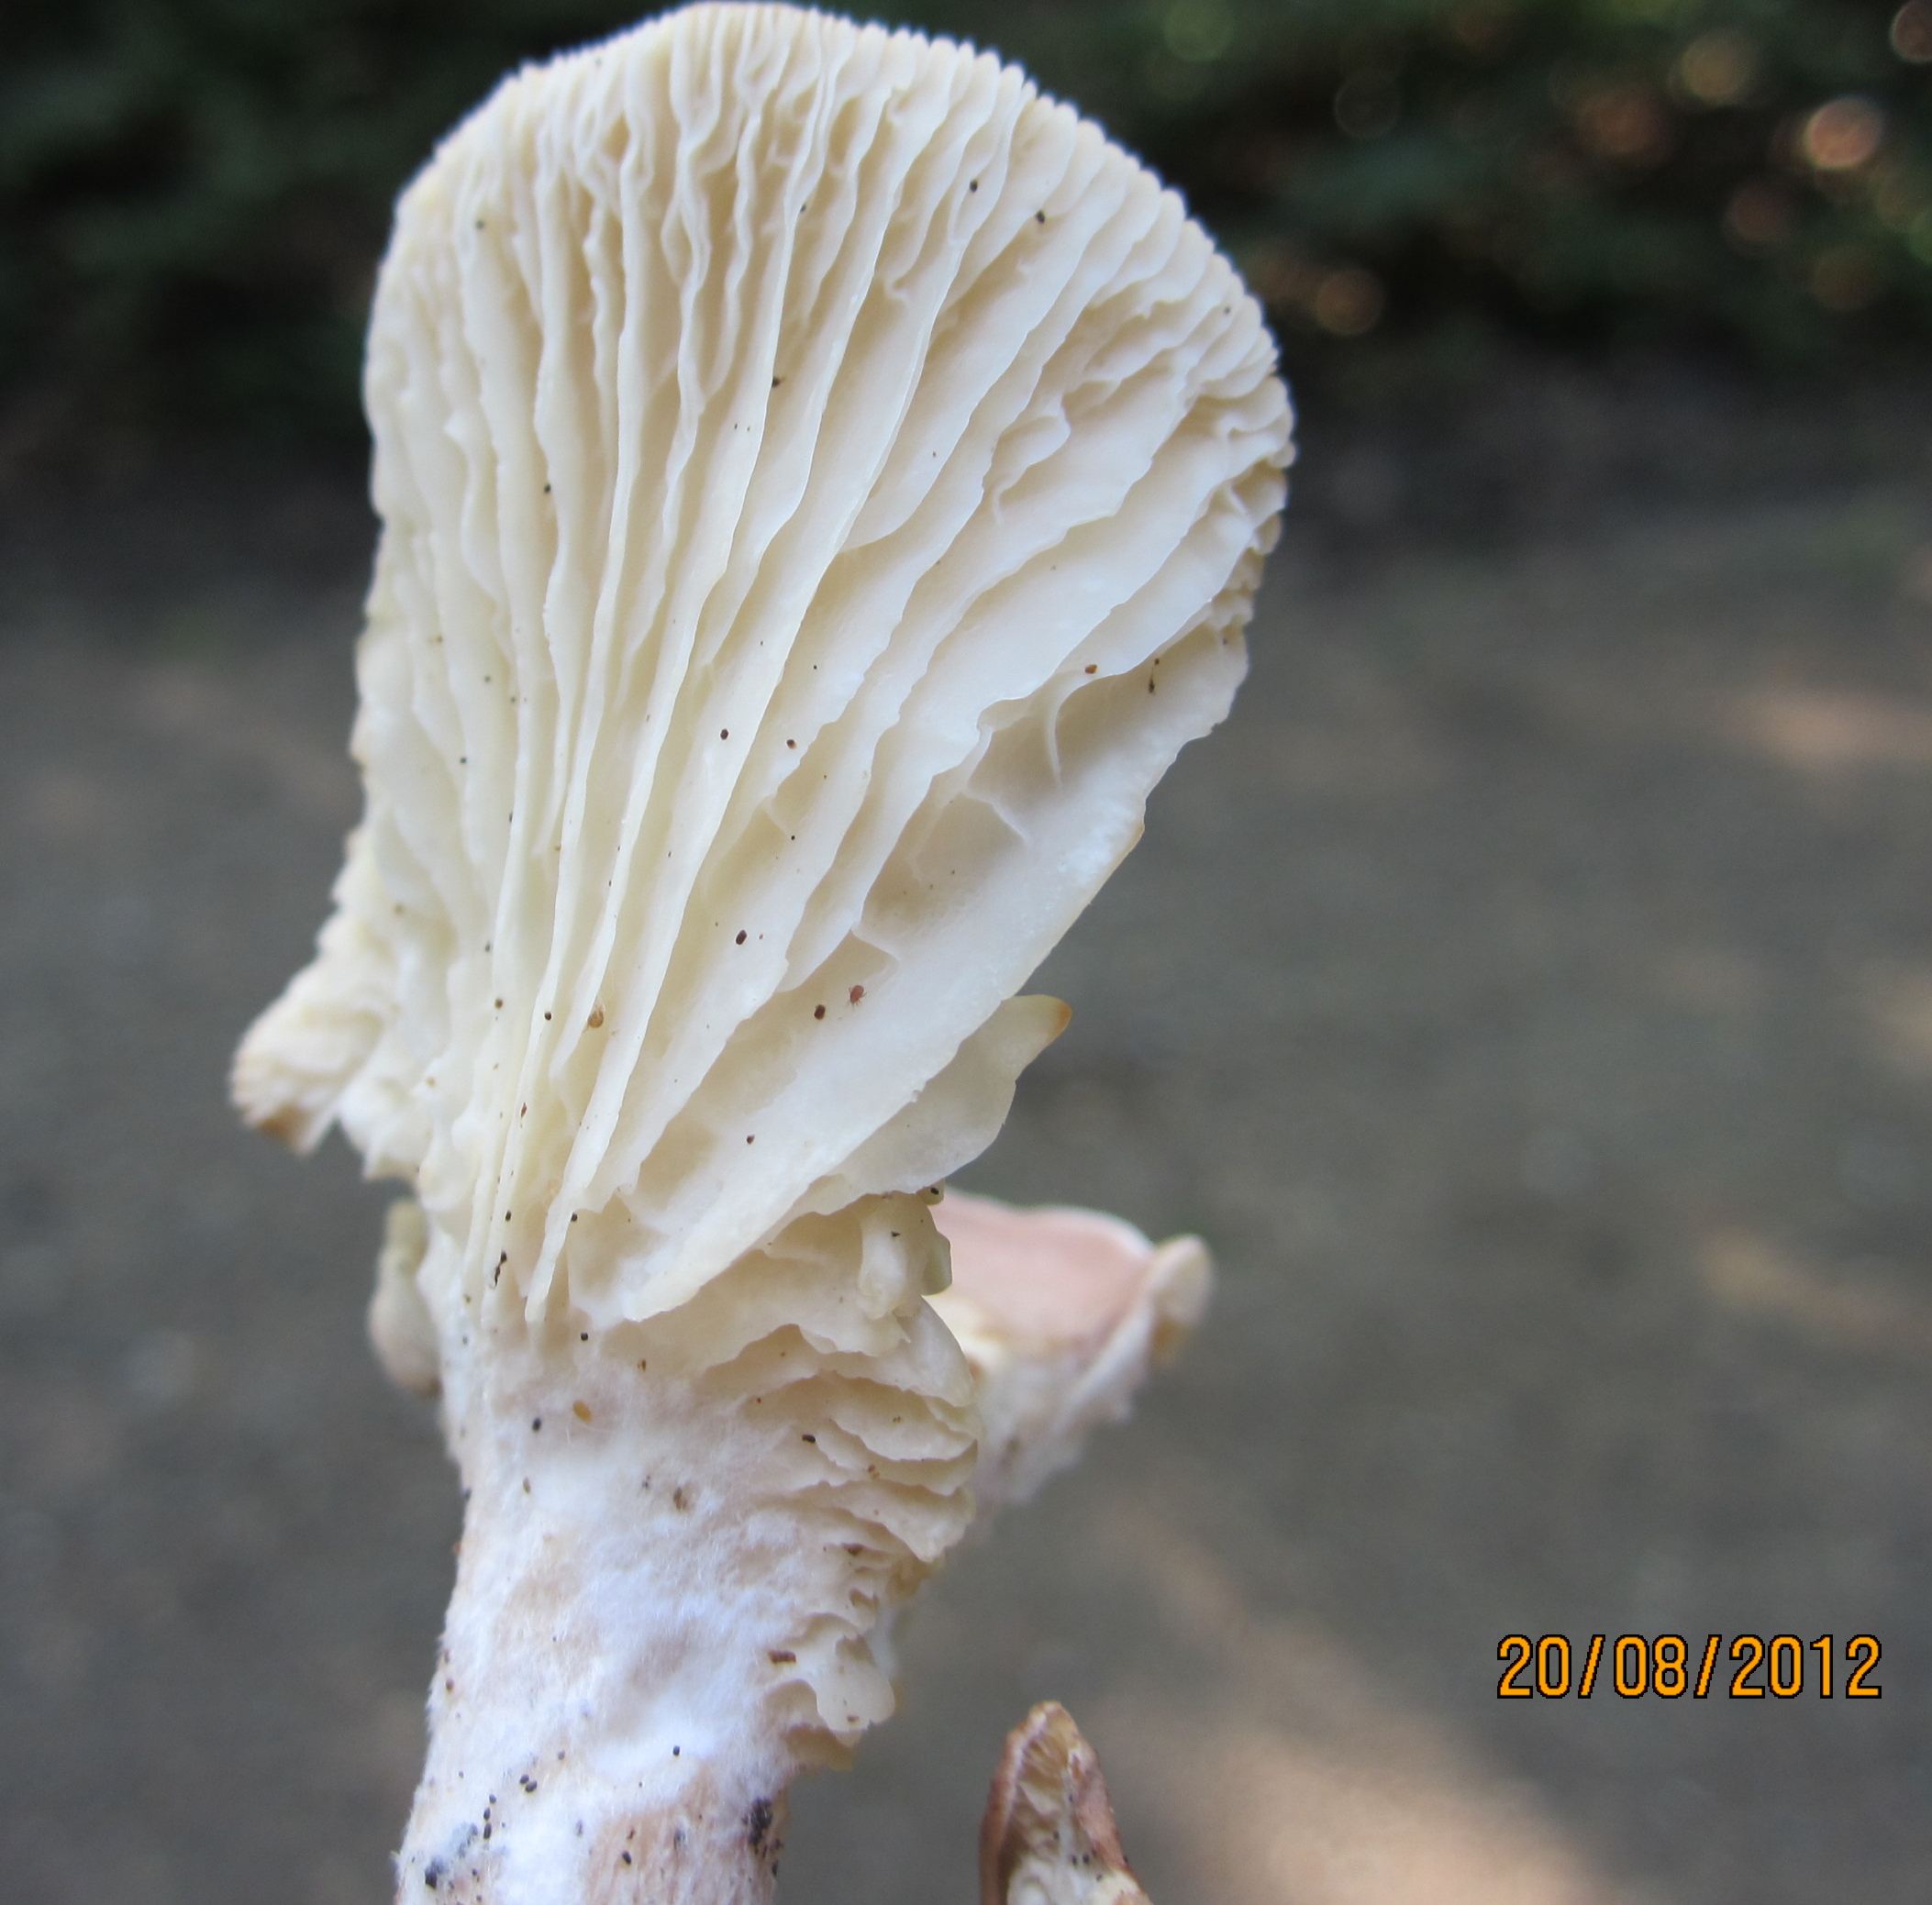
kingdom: Fungi
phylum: Basidiomycota
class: Agaricomycetes
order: Agaricales
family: Tricholomataceae
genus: Infundibulicybe
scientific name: Infundibulicybe gibba
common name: almindelig tragthat
